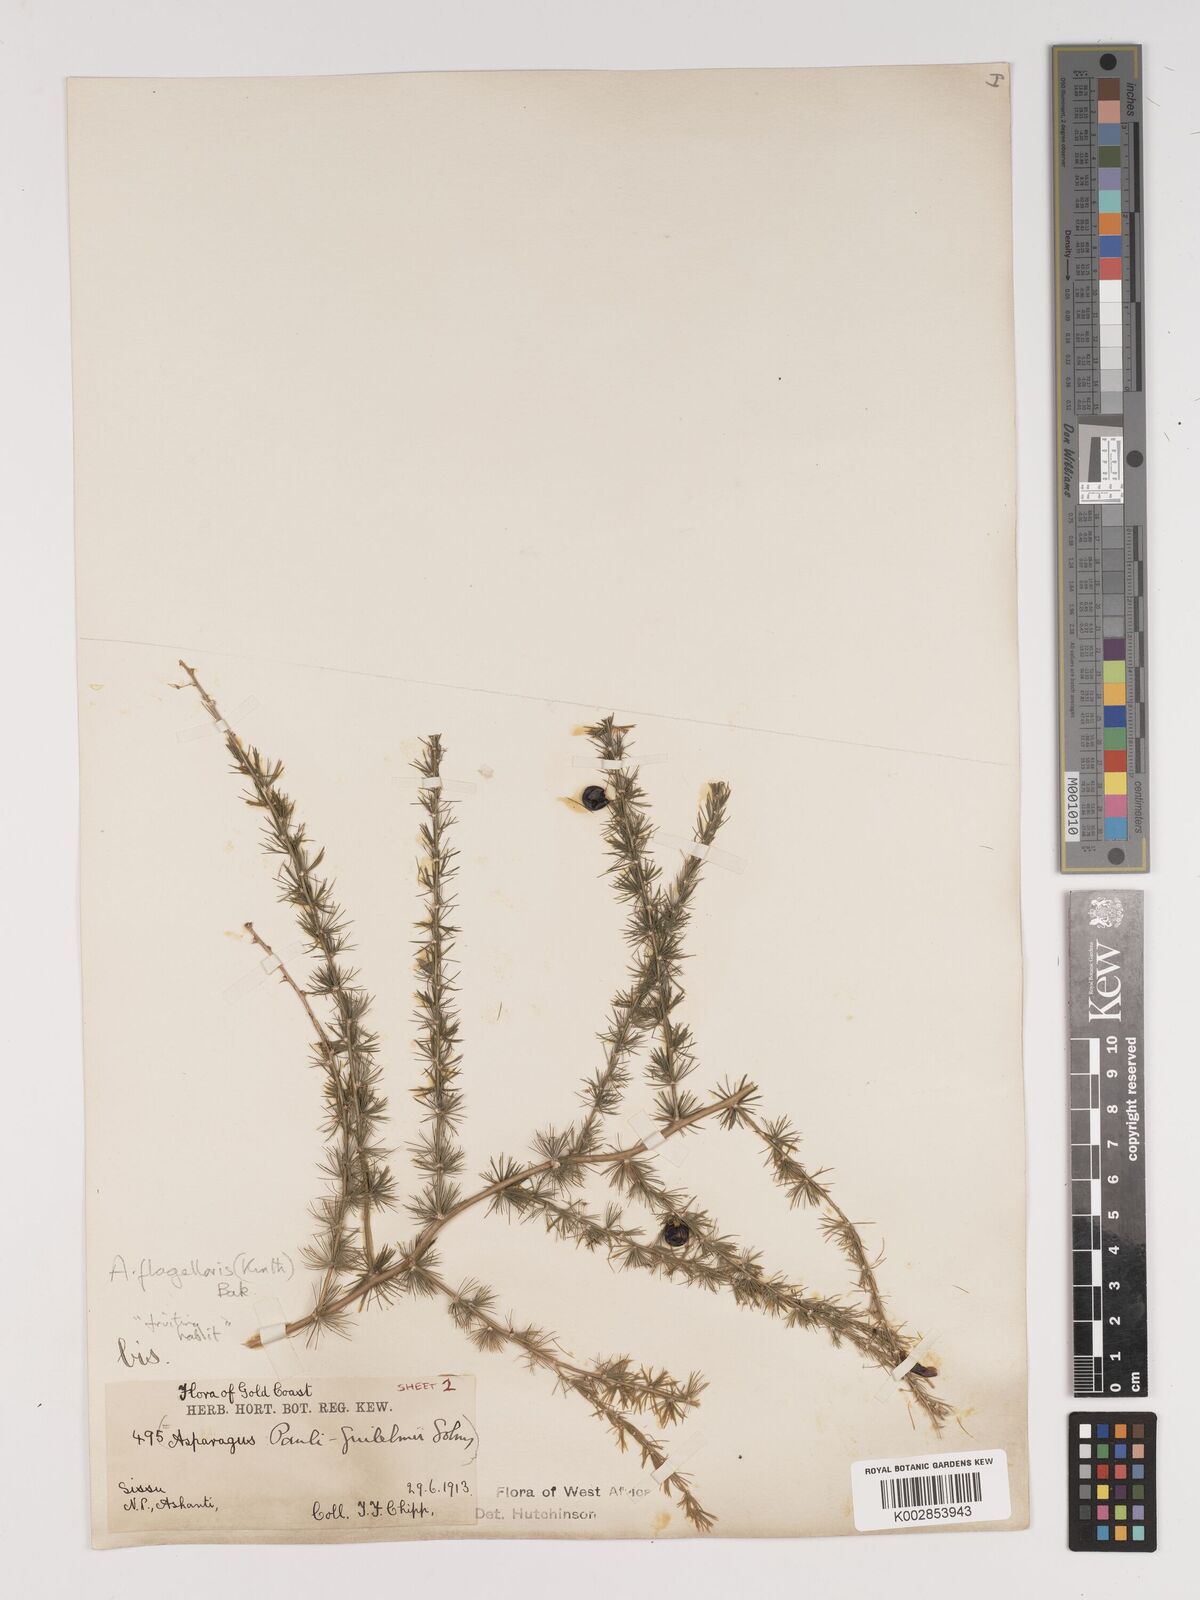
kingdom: Plantae
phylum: Tracheophyta
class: Liliopsida
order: Asparagales
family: Asparagaceae
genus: Asparagus
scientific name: Asparagus flagellaris
